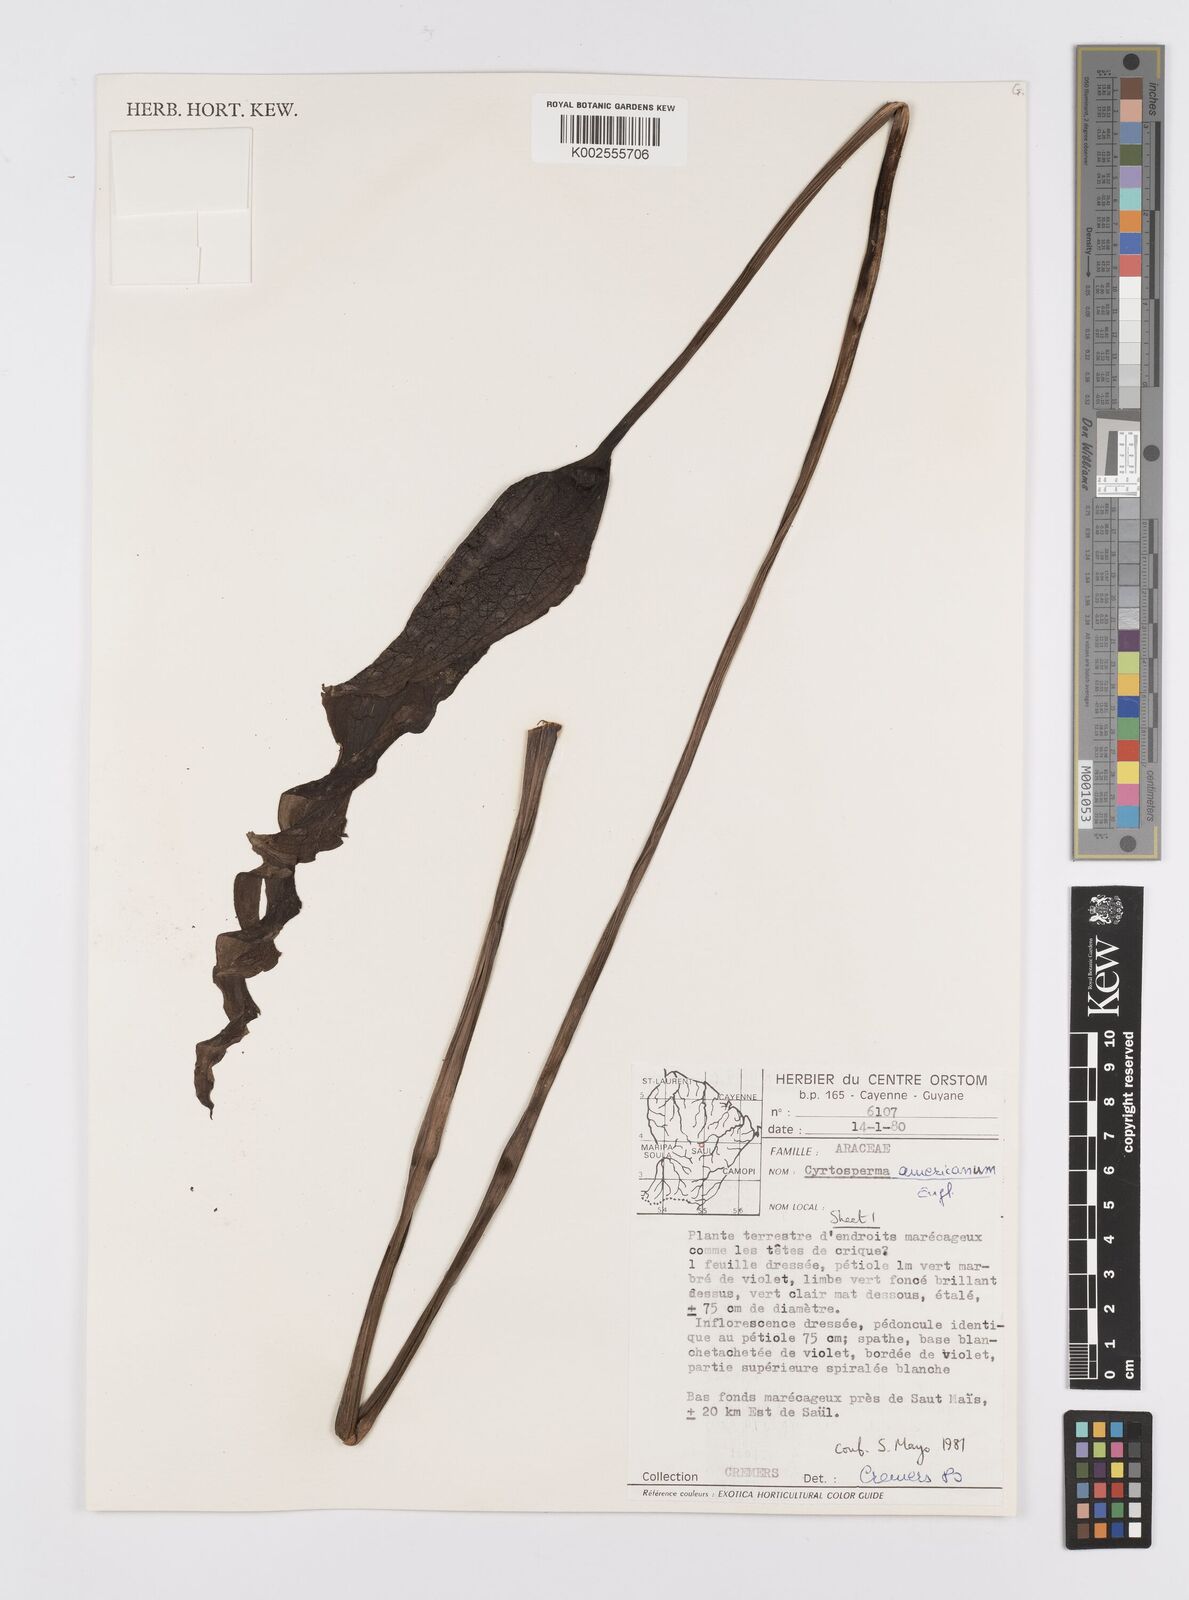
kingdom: Plantae
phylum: Tracheophyta
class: Liliopsida
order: Alismatales
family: Araceae
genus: Anaphyllopsis
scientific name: Anaphyllopsis americana
